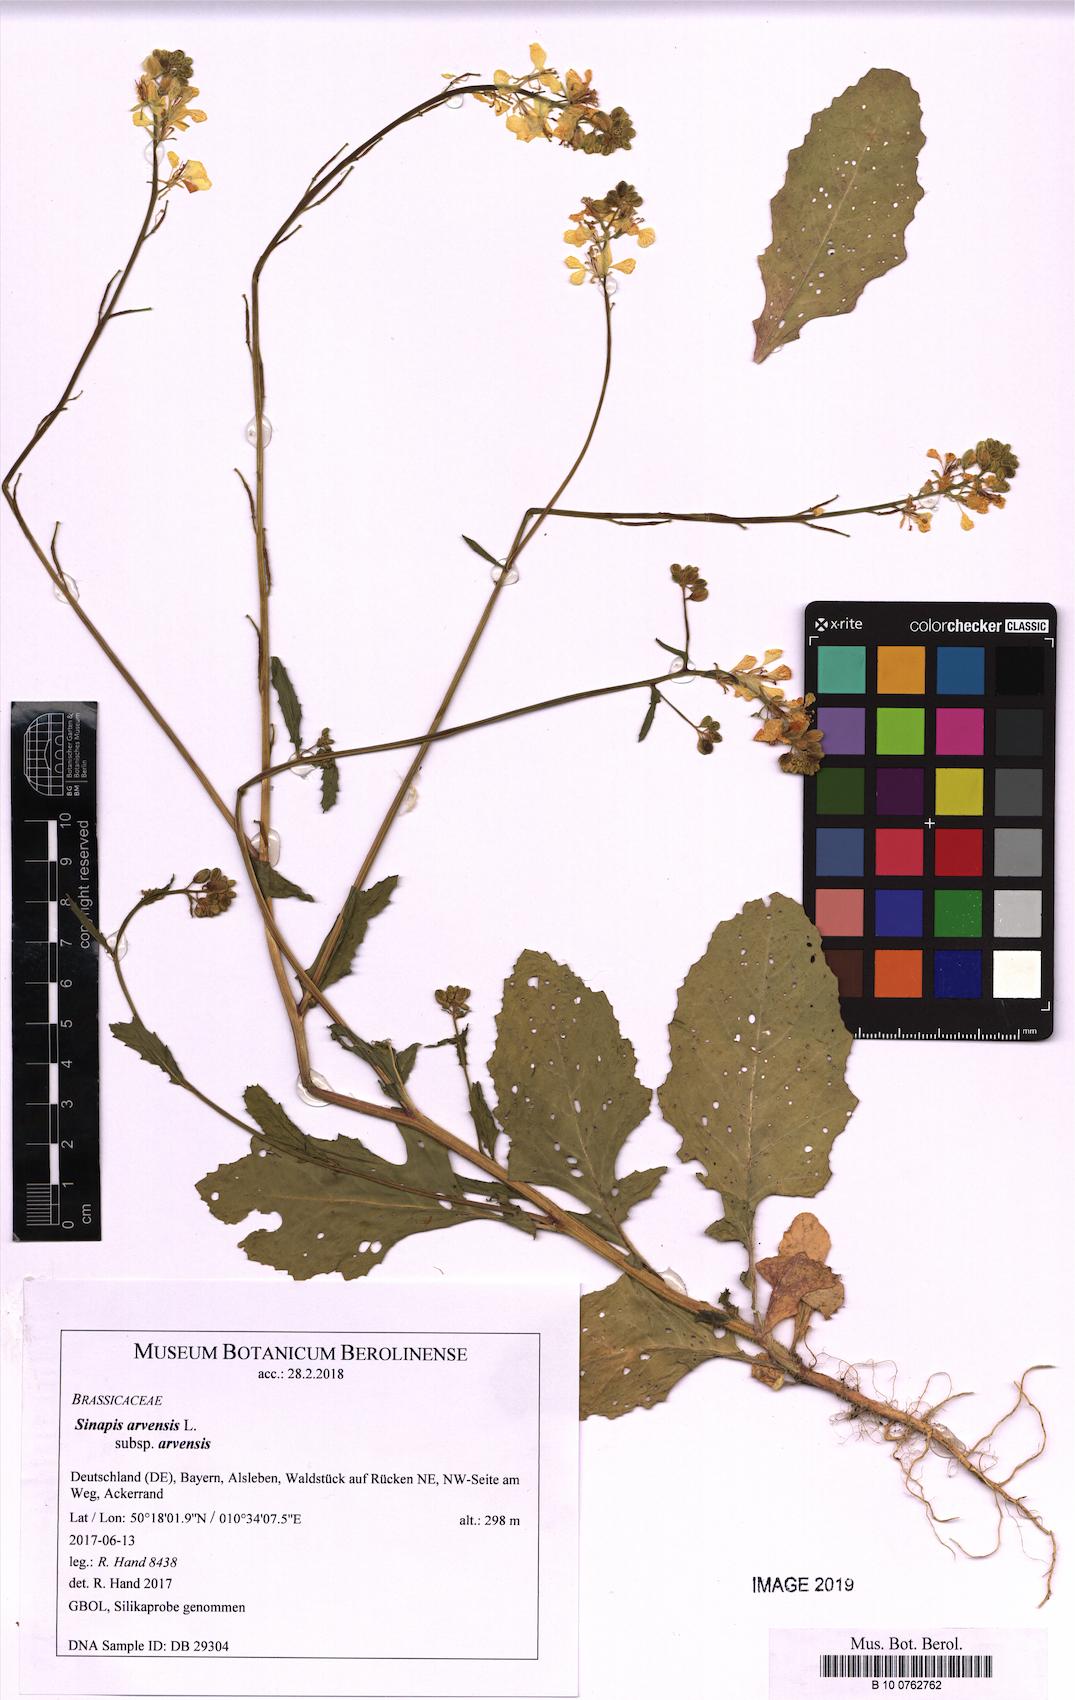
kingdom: Plantae
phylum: Tracheophyta
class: Magnoliopsida
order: Brassicales
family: Brassicaceae
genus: Sinapis
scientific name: Sinapis arvensis
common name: Charlock
